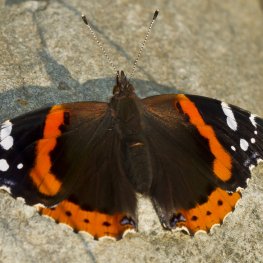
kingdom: Animalia
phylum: Arthropoda
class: Insecta
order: Lepidoptera
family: Nymphalidae
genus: Vanessa
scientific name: Vanessa atalanta
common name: Red Admiral
